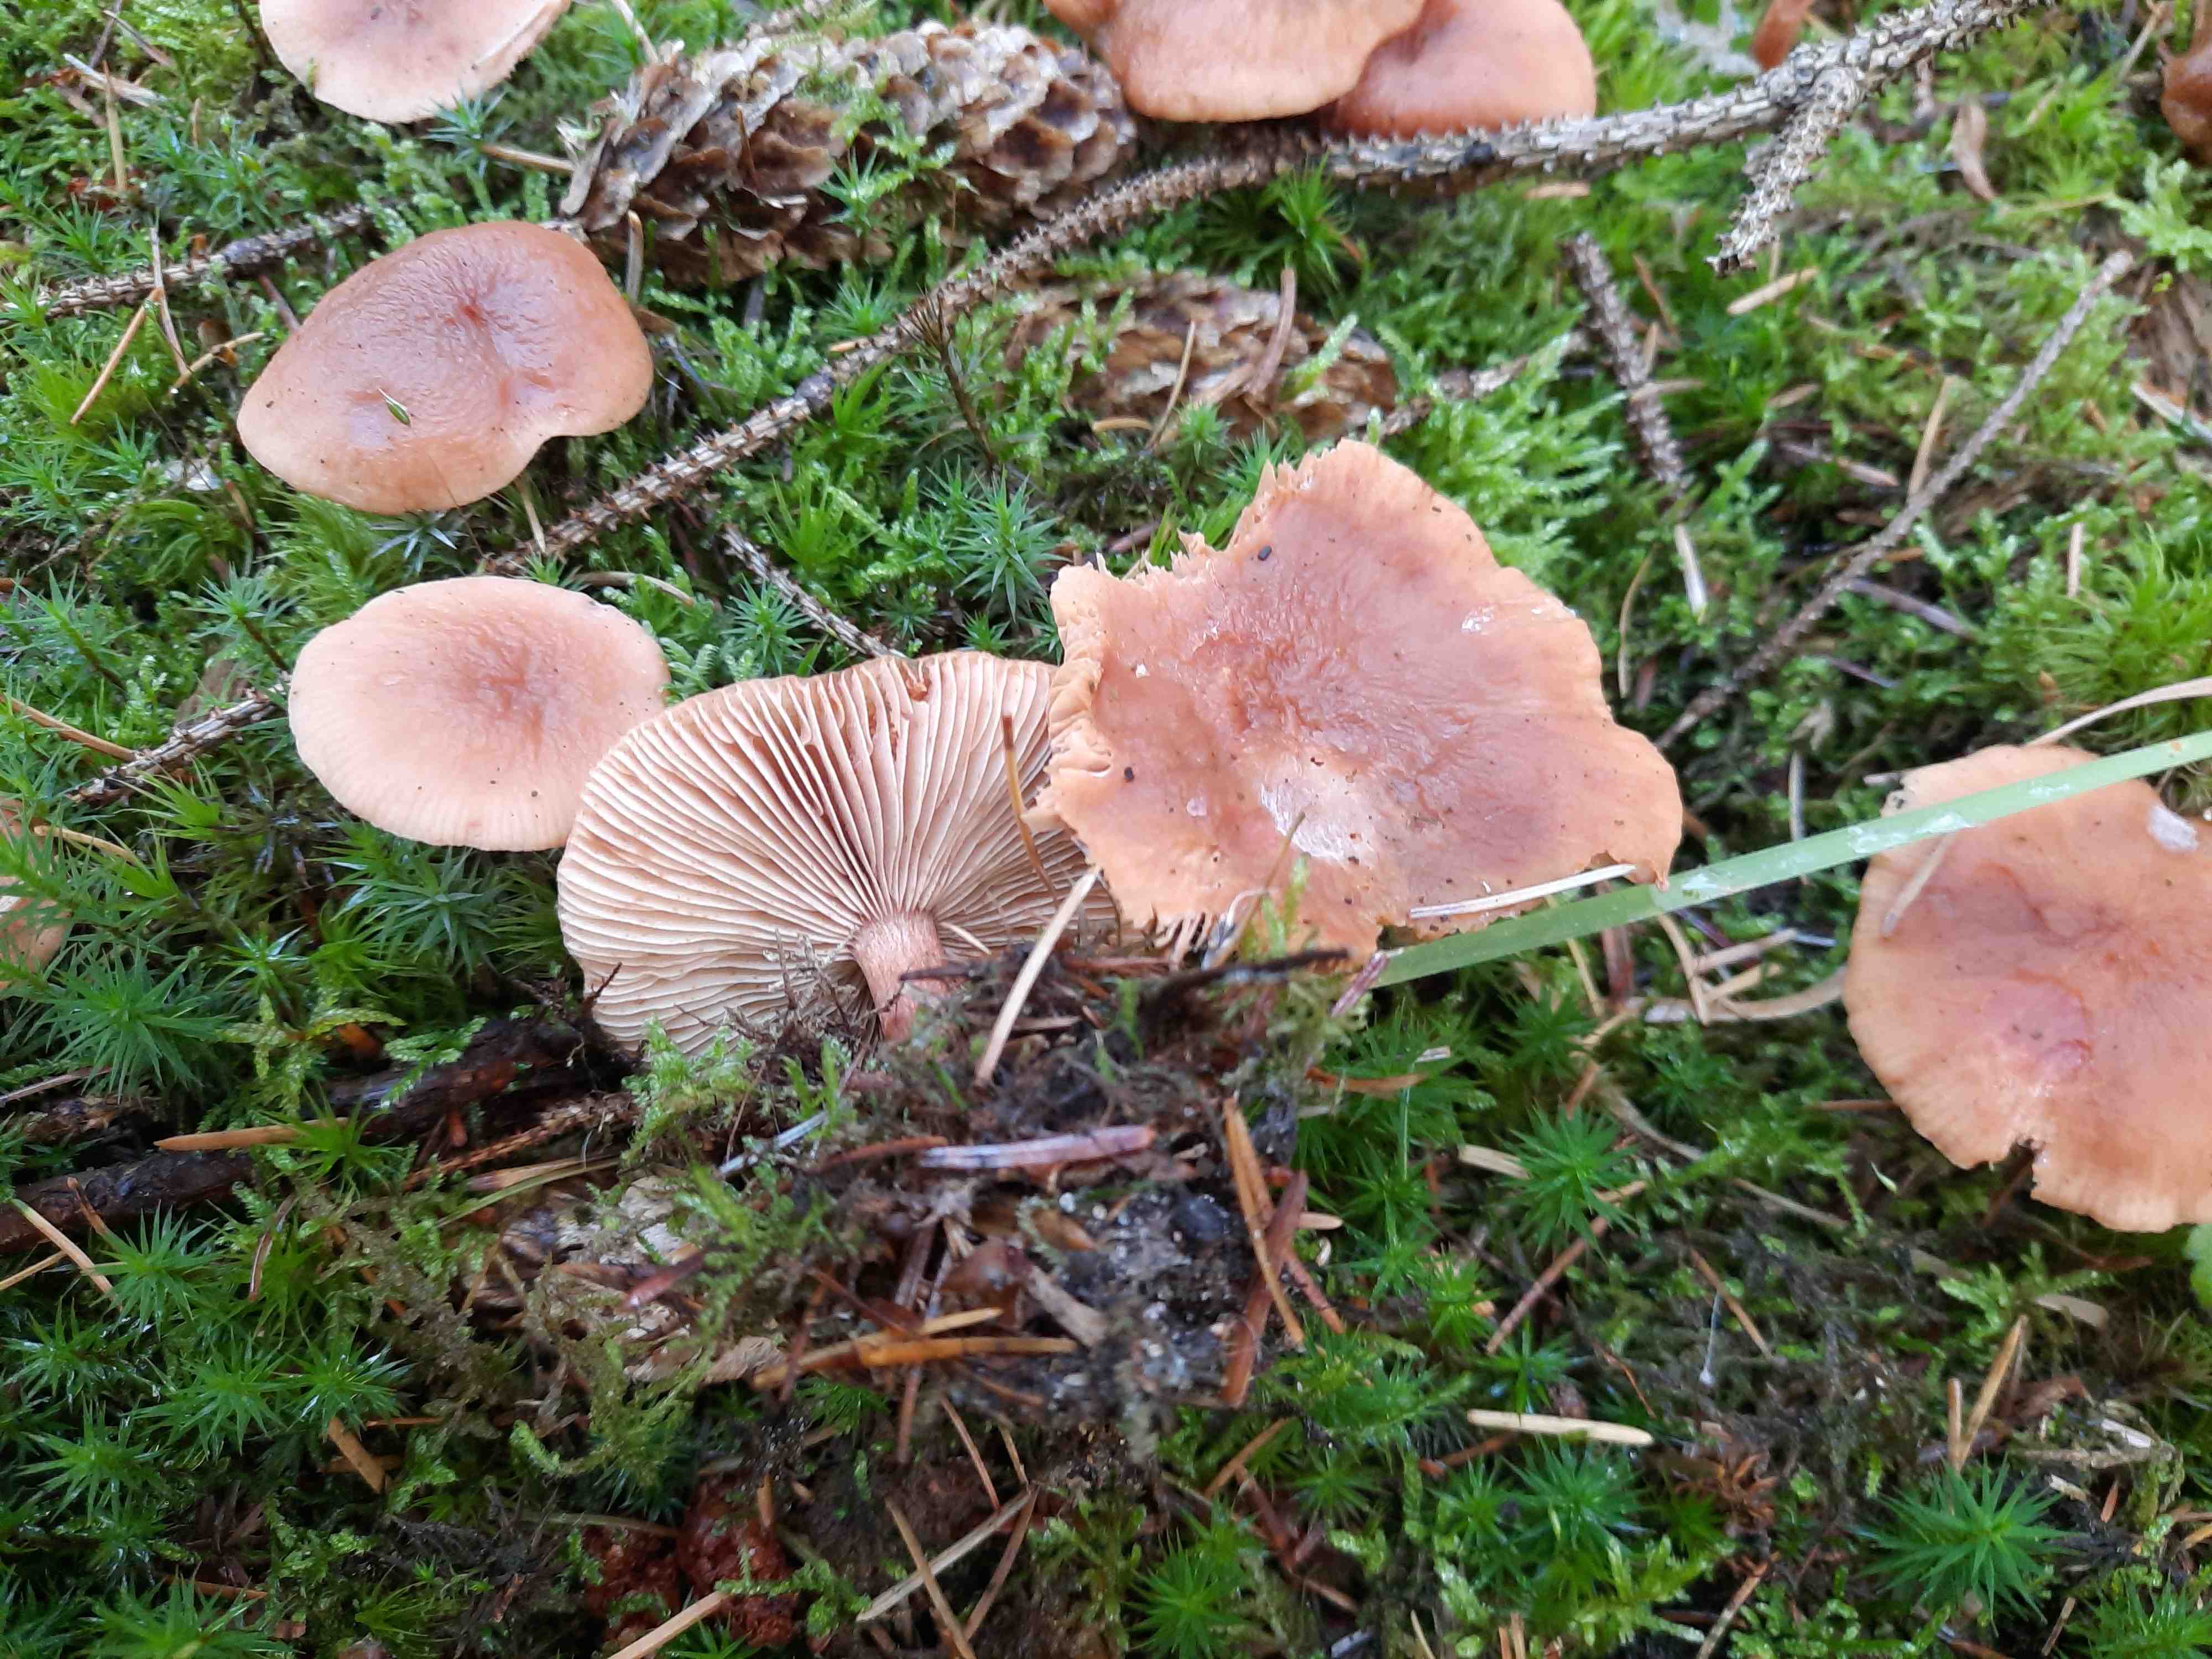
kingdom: Fungi
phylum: Basidiomycota
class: Agaricomycetes
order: Russulales
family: Russulaceae
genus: Lactarius
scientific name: Lactarius tabidus
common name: rynket mælkehat
